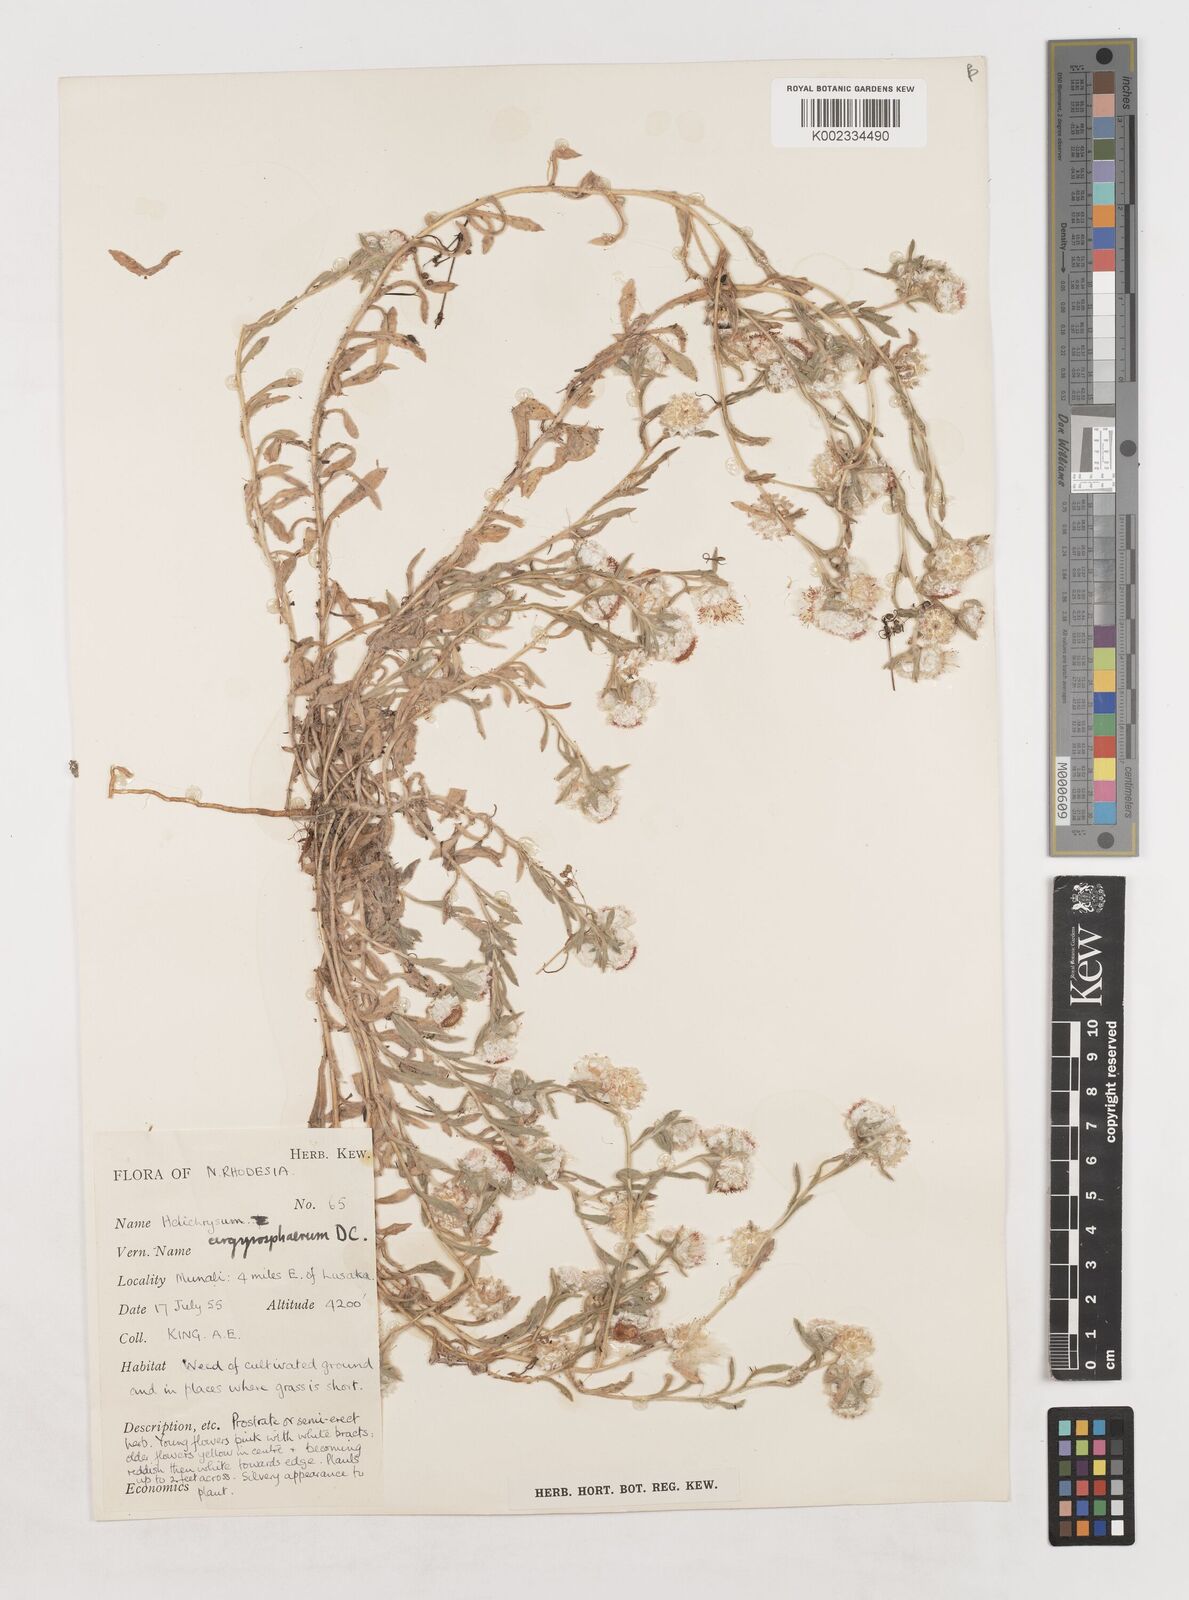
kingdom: Plantae
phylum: Tracheophyta
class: Magnoliopsida
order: Asterales
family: Asteraceae
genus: Helichrysum
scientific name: Helichrysum argyrosphaerum
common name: Wild everlasting
